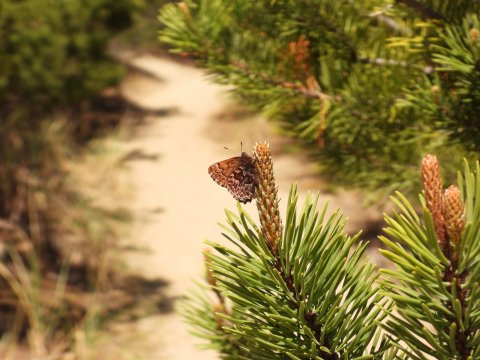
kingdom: Animalia
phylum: Arthropoda
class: Insecta
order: Lepidoptera
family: Lycaenidae
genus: Incisalia
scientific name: Incisalia eryphon
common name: Western Pine Elfin
